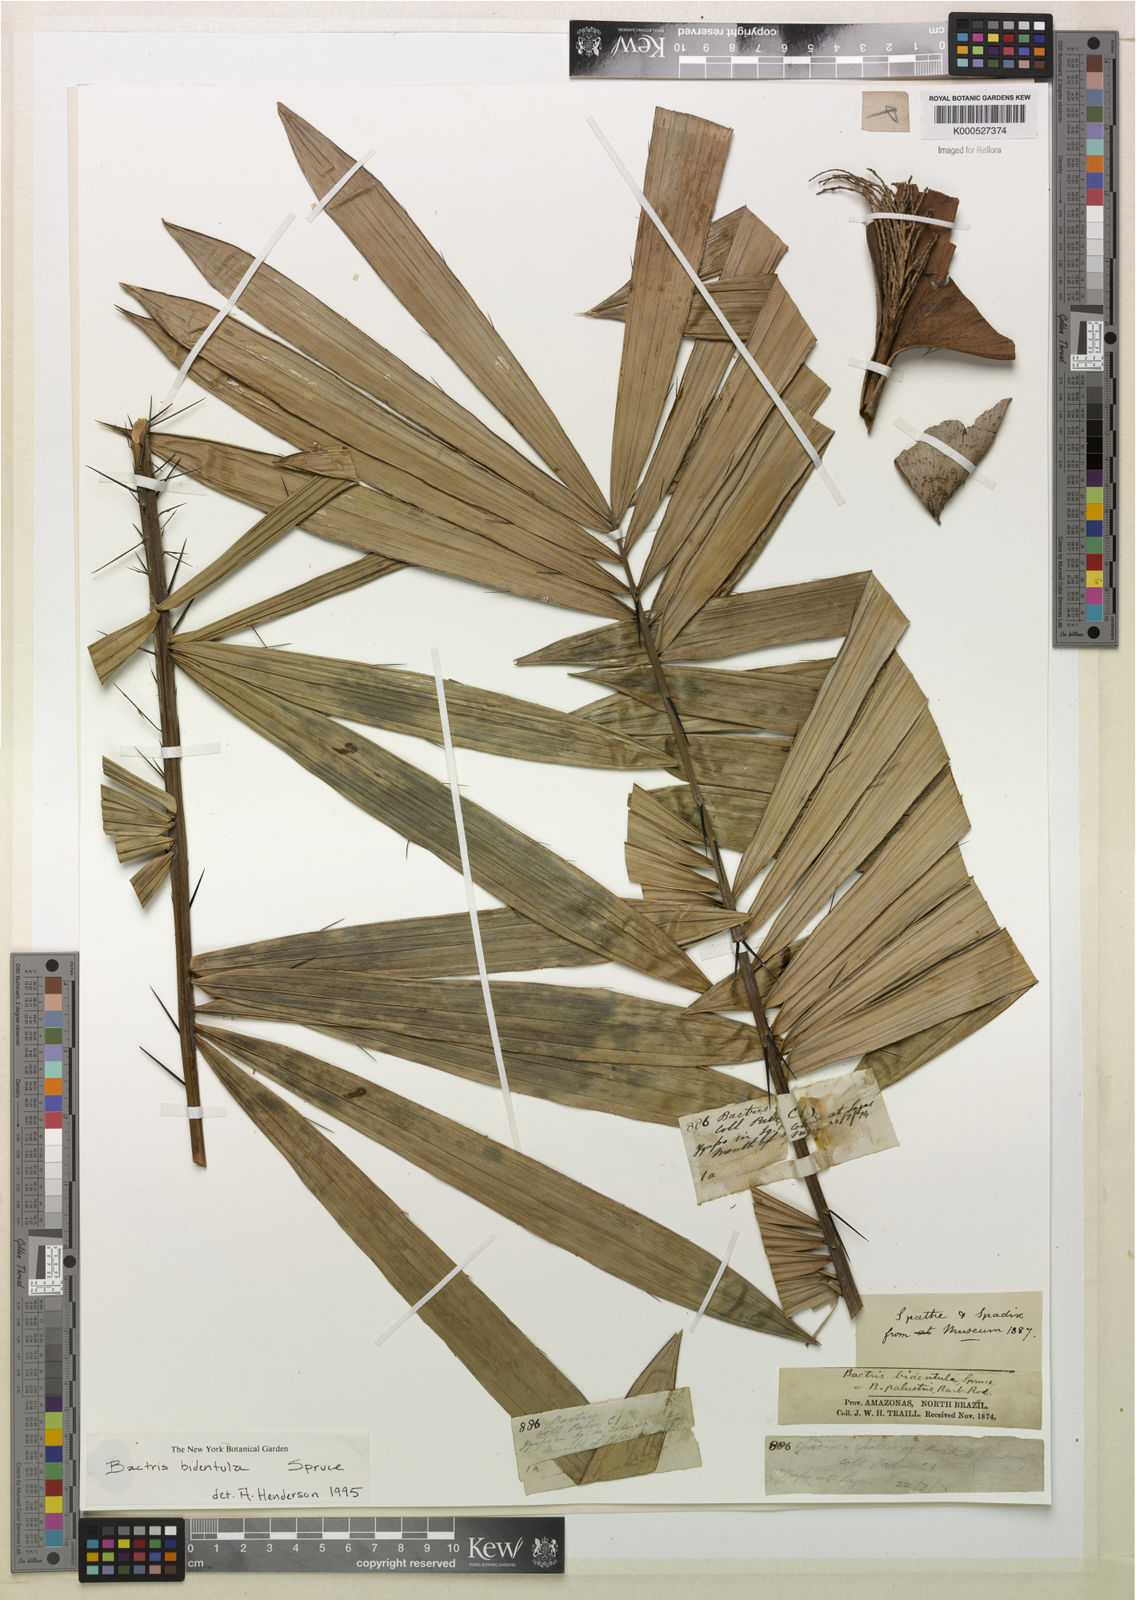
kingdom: Plantae
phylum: Tracheophyta
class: Liliopsida
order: Arecales
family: Arecaceae
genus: Bactris
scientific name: Bactris bidentula
